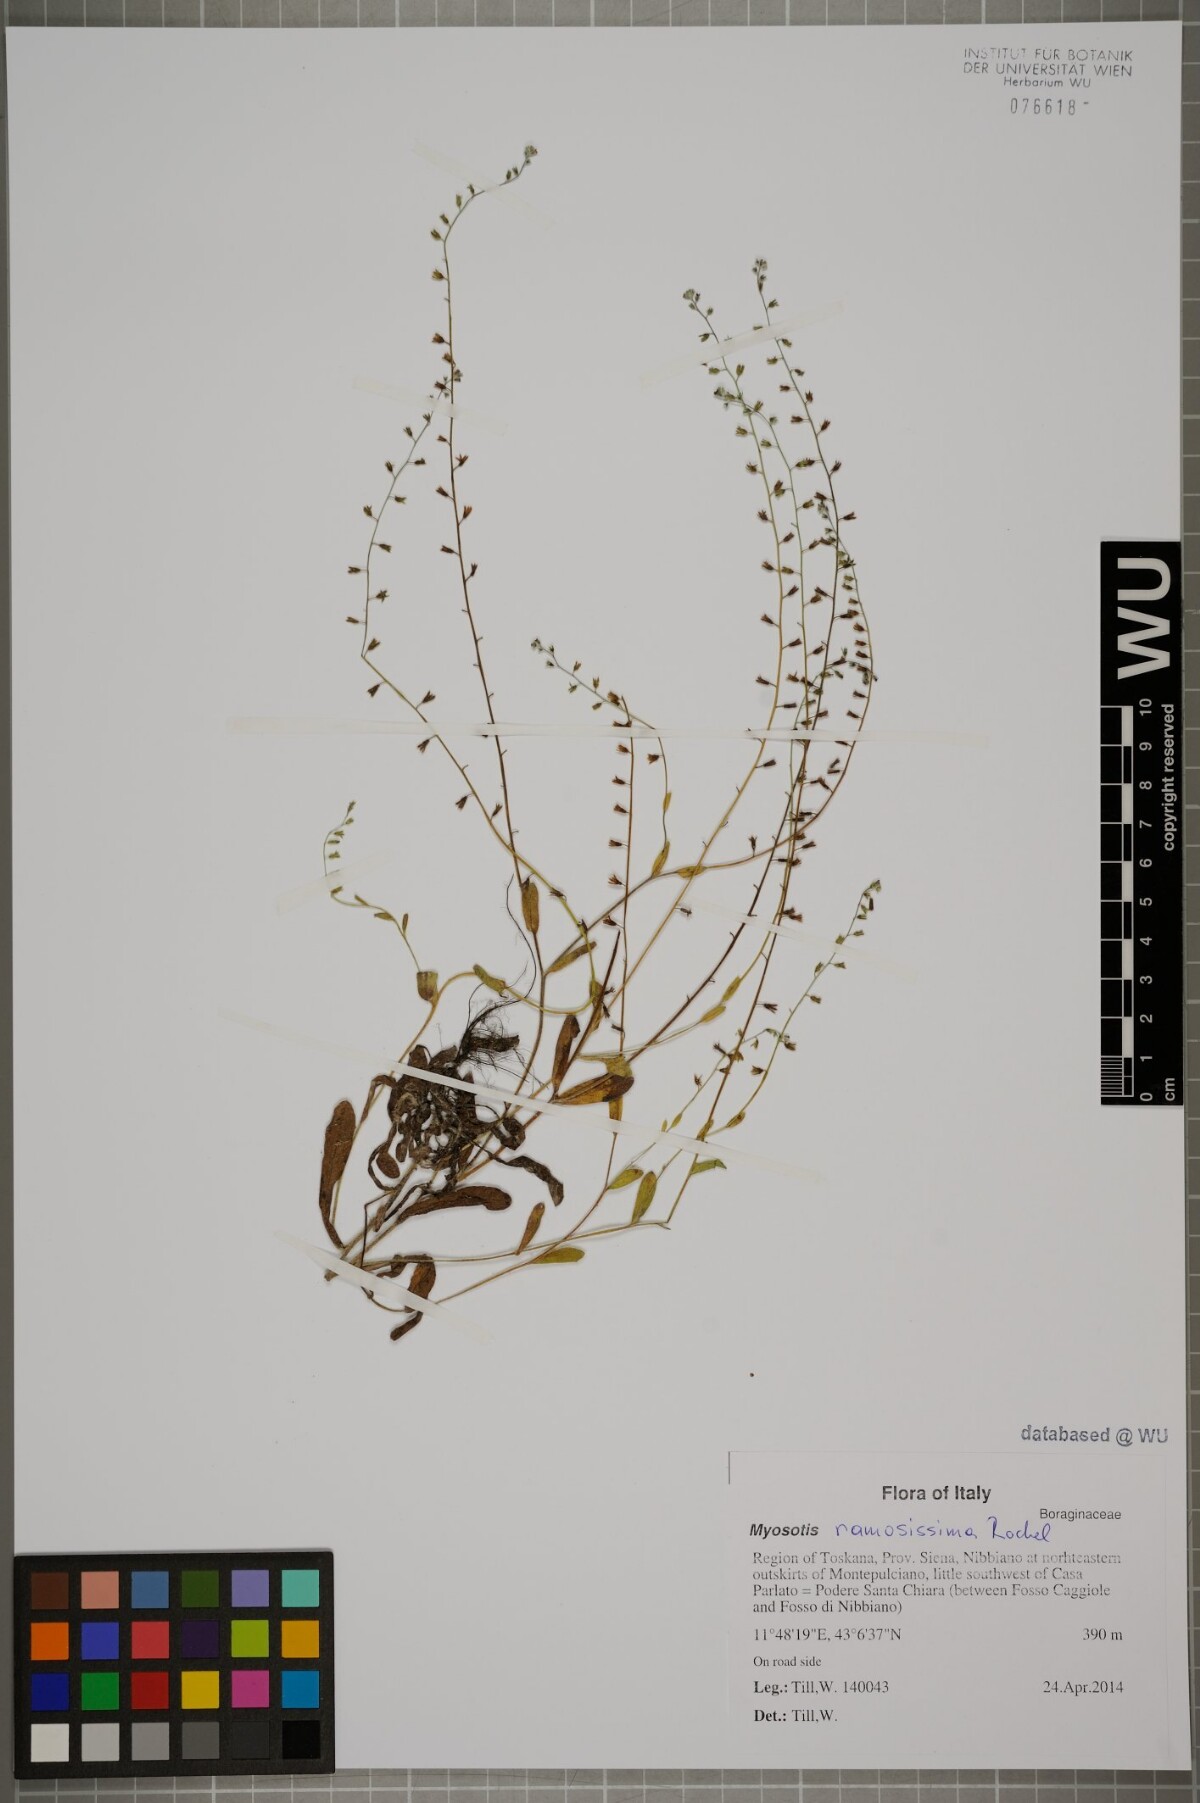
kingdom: Plantae
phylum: Tracheophyta
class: Magnoliopsida
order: Boraginales
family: Boraginaceae
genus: Myosotis
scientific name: Myosotis ramosissima
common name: Early forget-me-not
